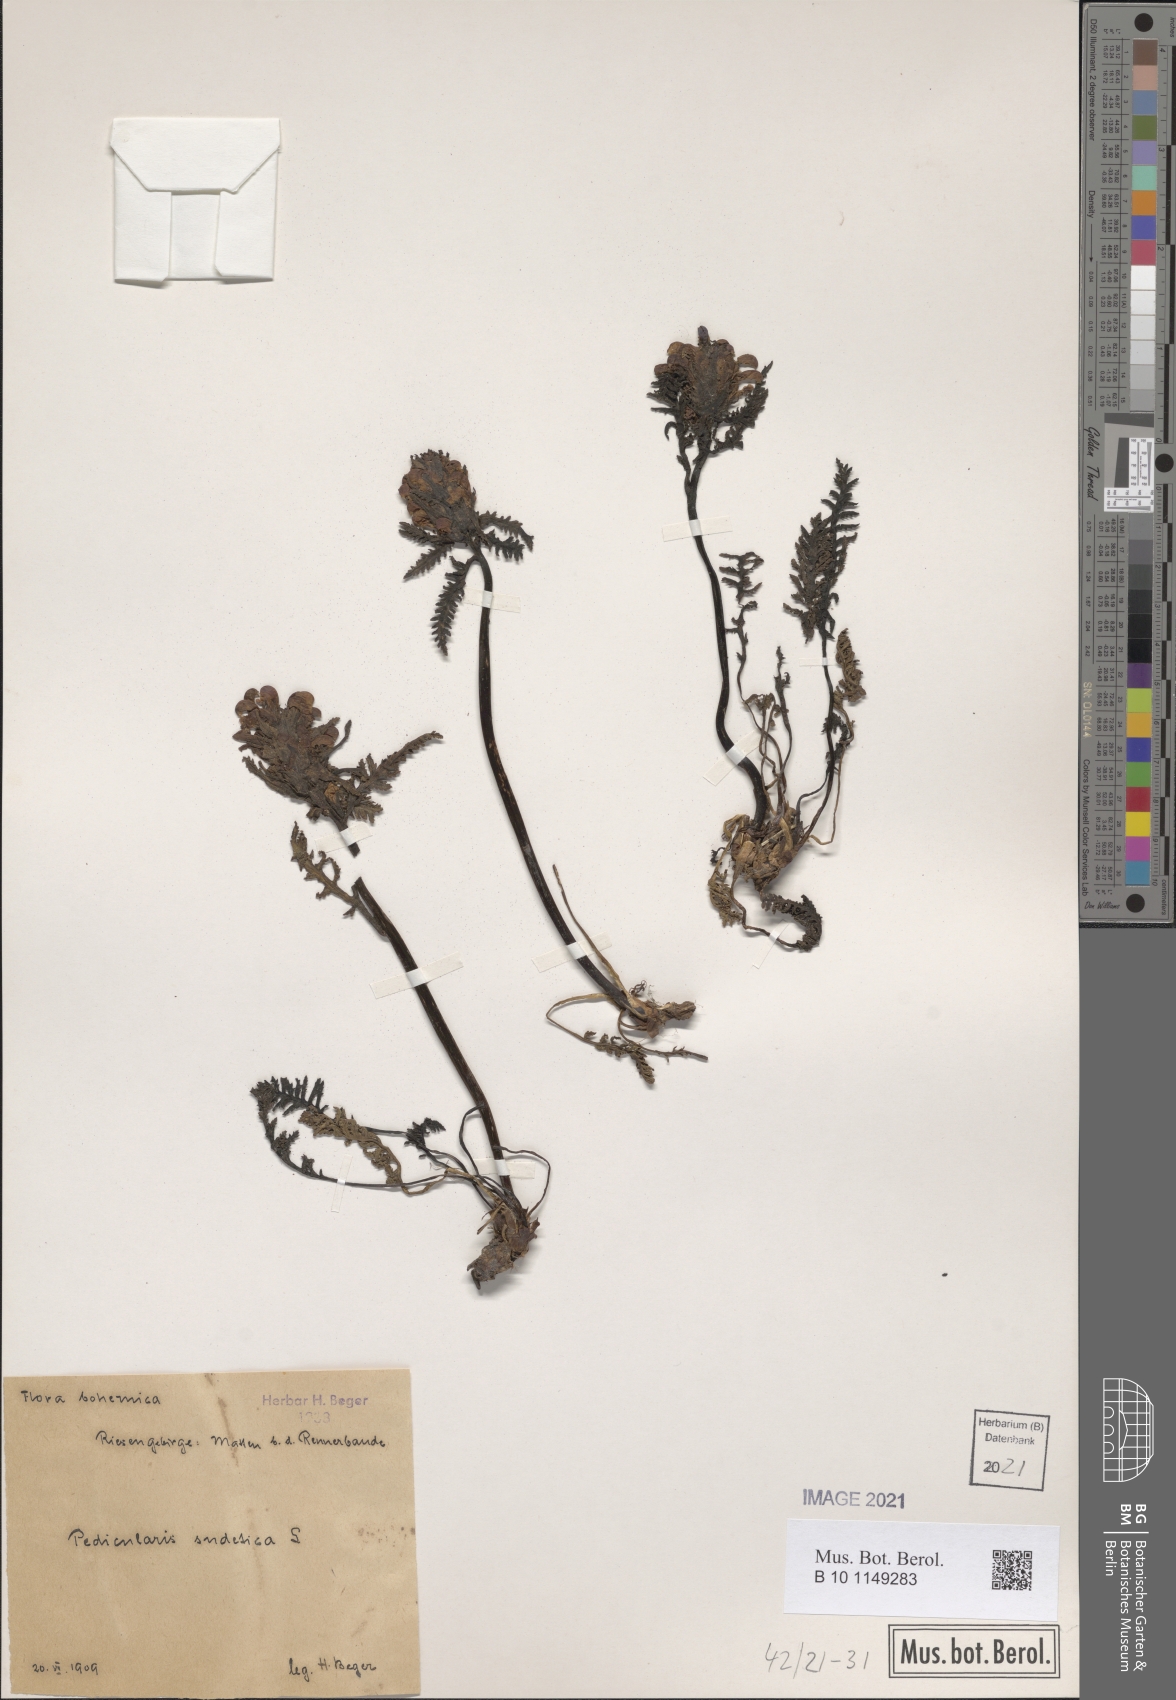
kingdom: Plantae
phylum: Tracheophyta
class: Magnoliopsida
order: Lamiales
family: Orobanchaceae
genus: Pedicularis
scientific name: Pedicularis sudetica
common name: Sudeten lousewort
